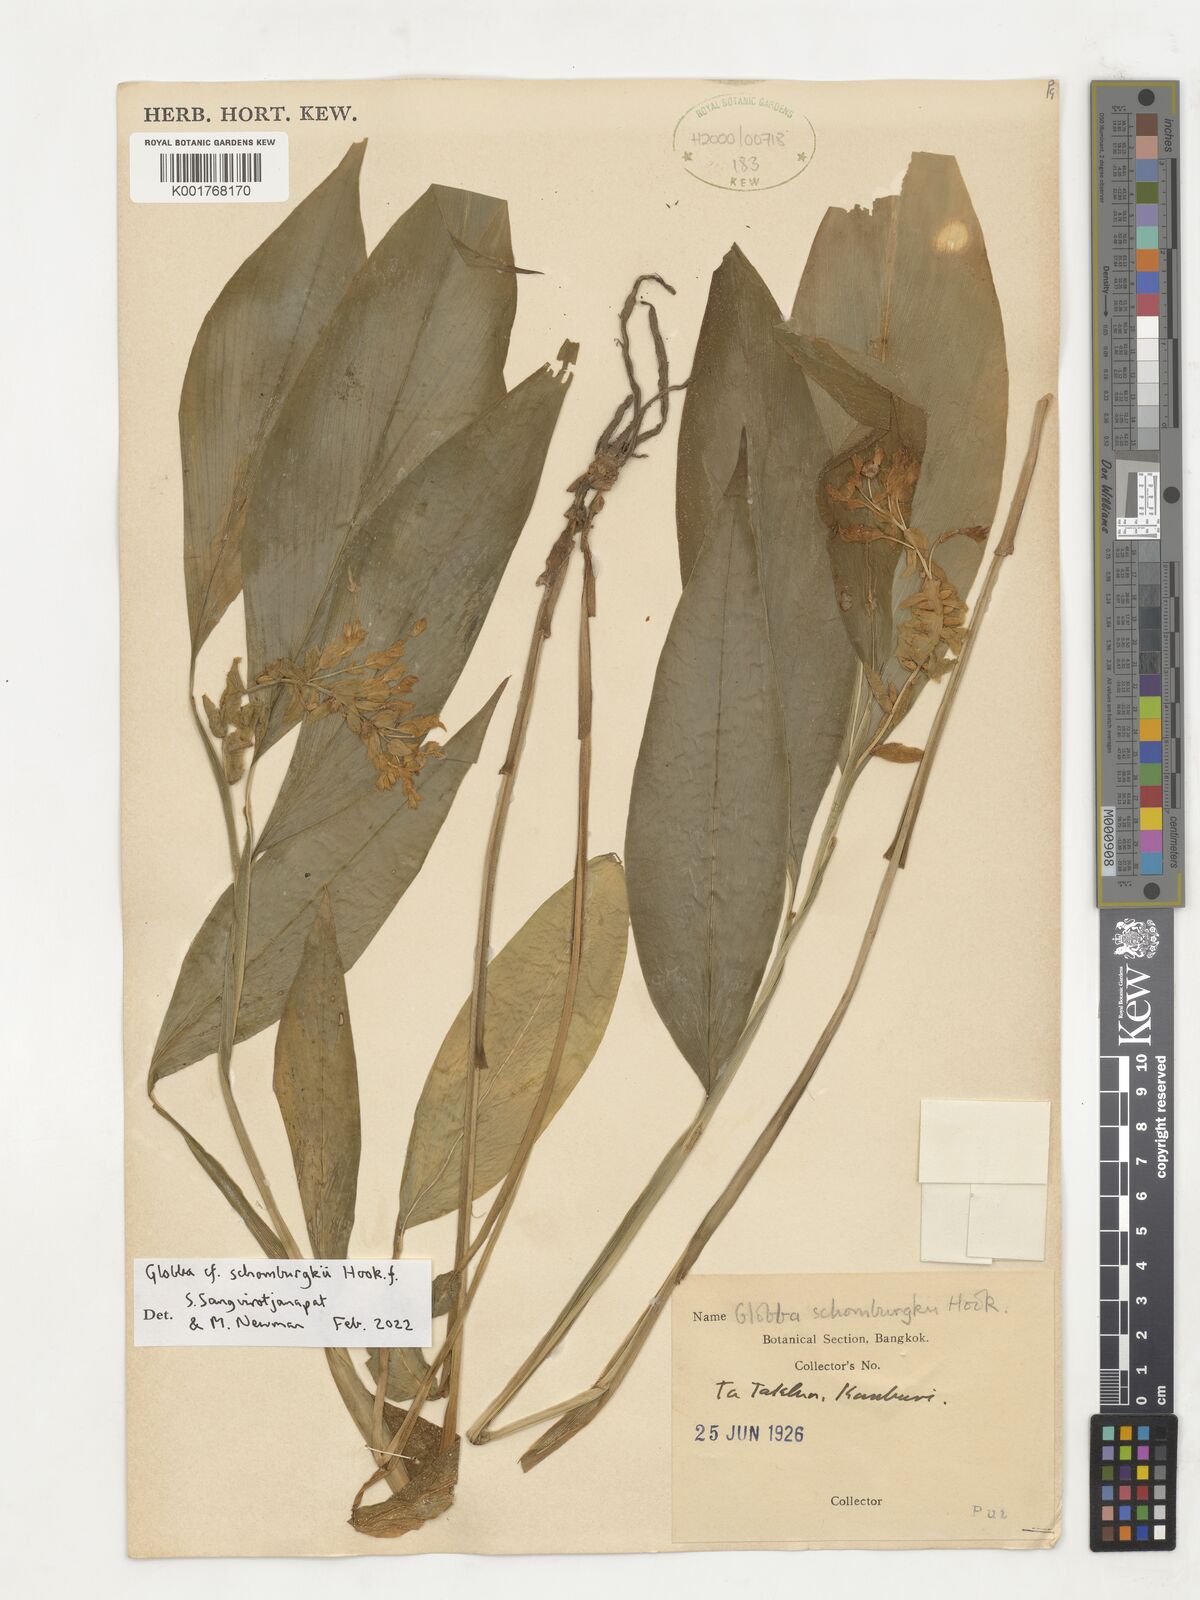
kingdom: Plantae
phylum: Tracheophyta
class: Liliopsida
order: Zingiberales
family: Zingiberaceae
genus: Globba
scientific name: Globba schomburgkii
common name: Dancing girl ginger
